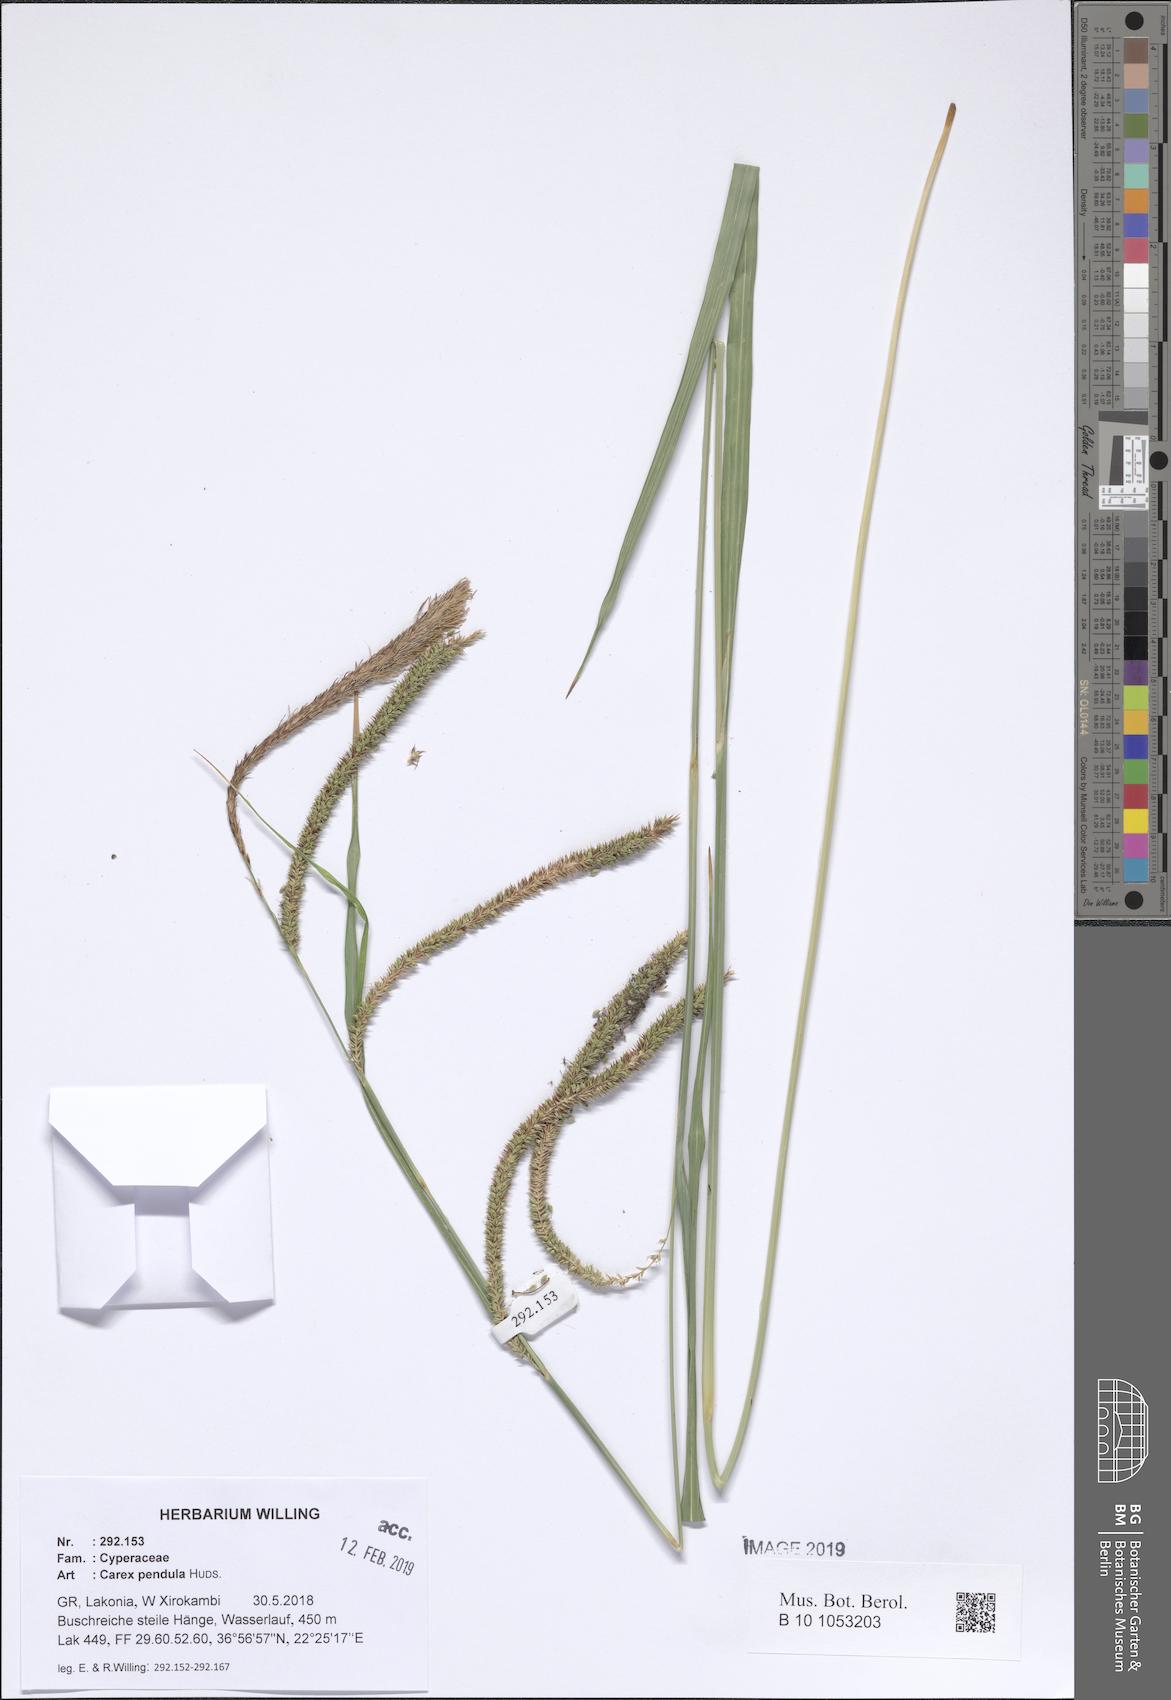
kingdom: Plantae
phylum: Tracheophyta
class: Liliopsida
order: Poales
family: Cyperaceae
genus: Carex
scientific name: Carex pendula
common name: Pendulous sedge
